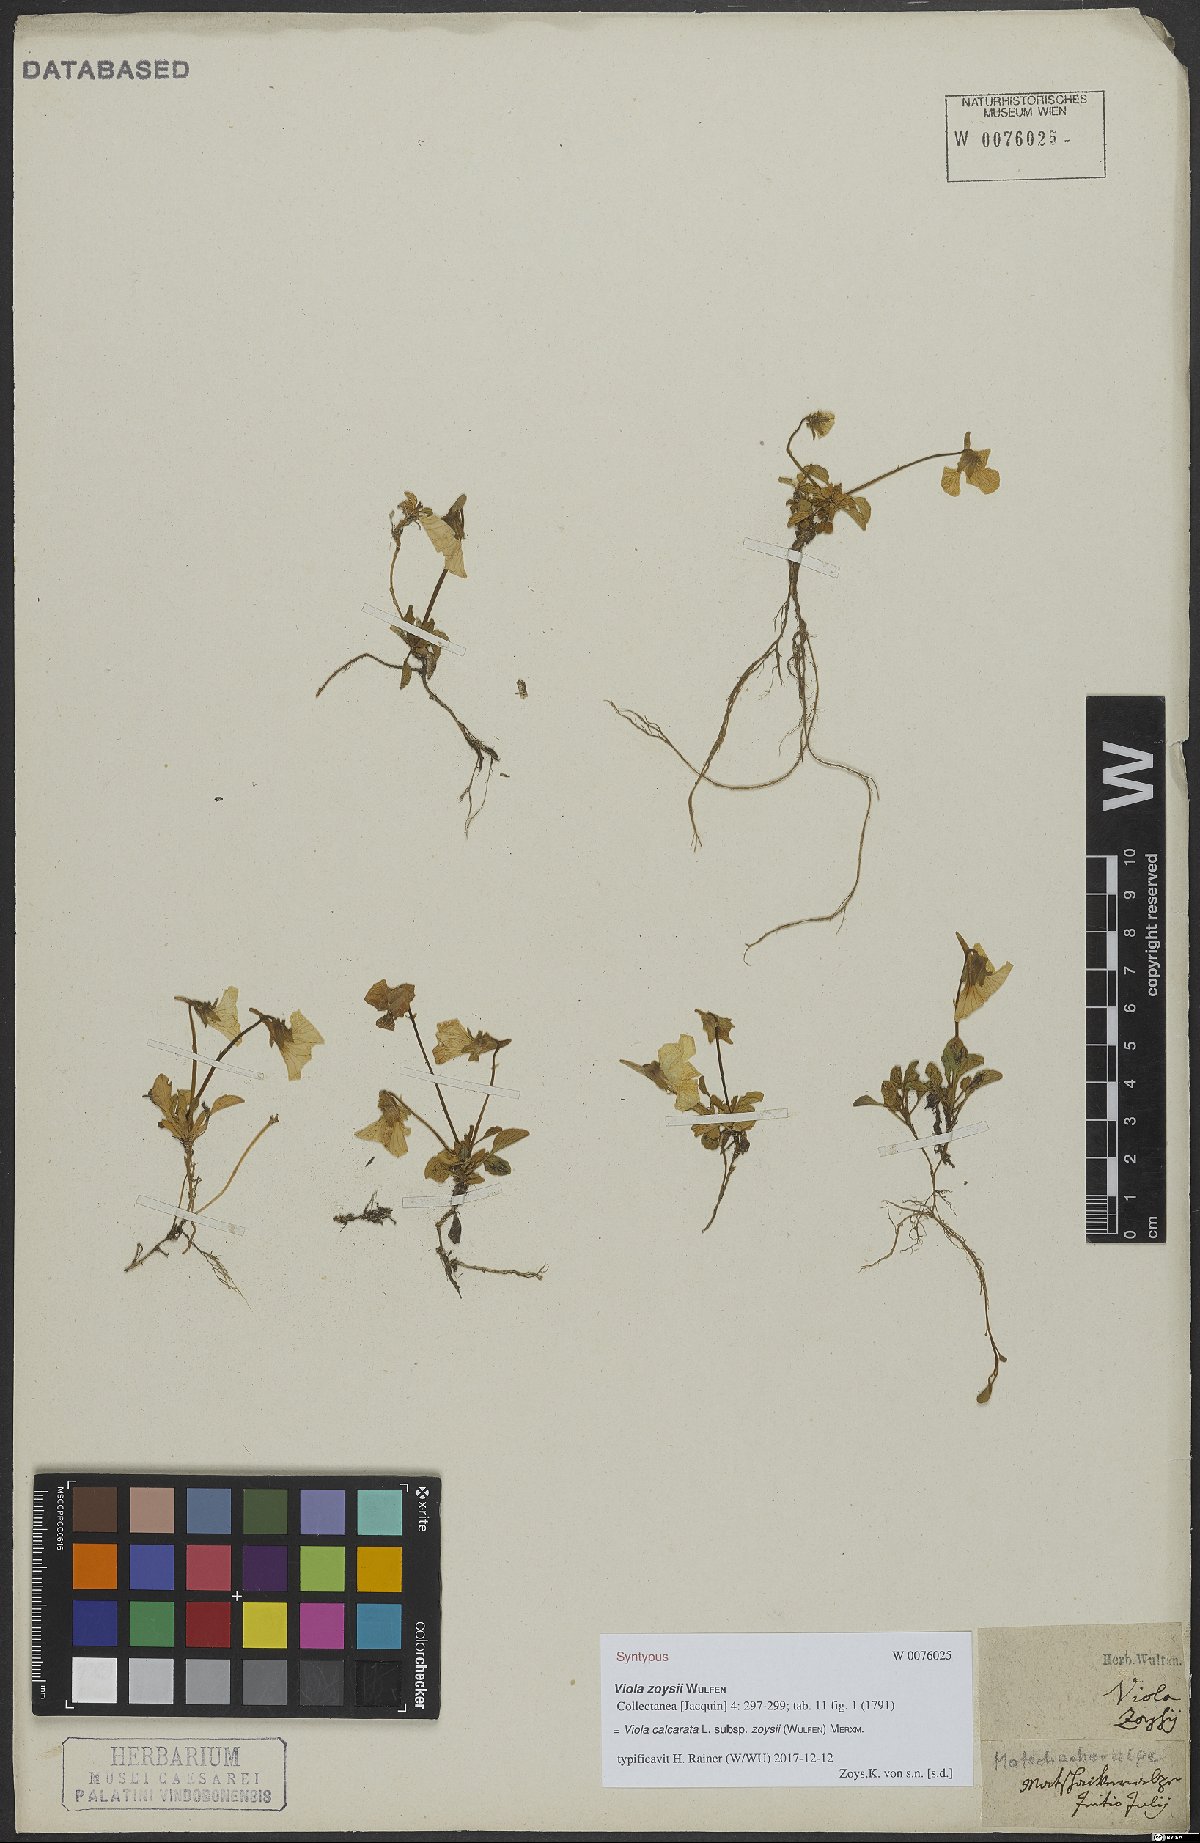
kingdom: Plantae
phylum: Tracheophyta
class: Magnoliopsida
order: Malpighiales
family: Violaceae
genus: Viola
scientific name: Viola calcarata
